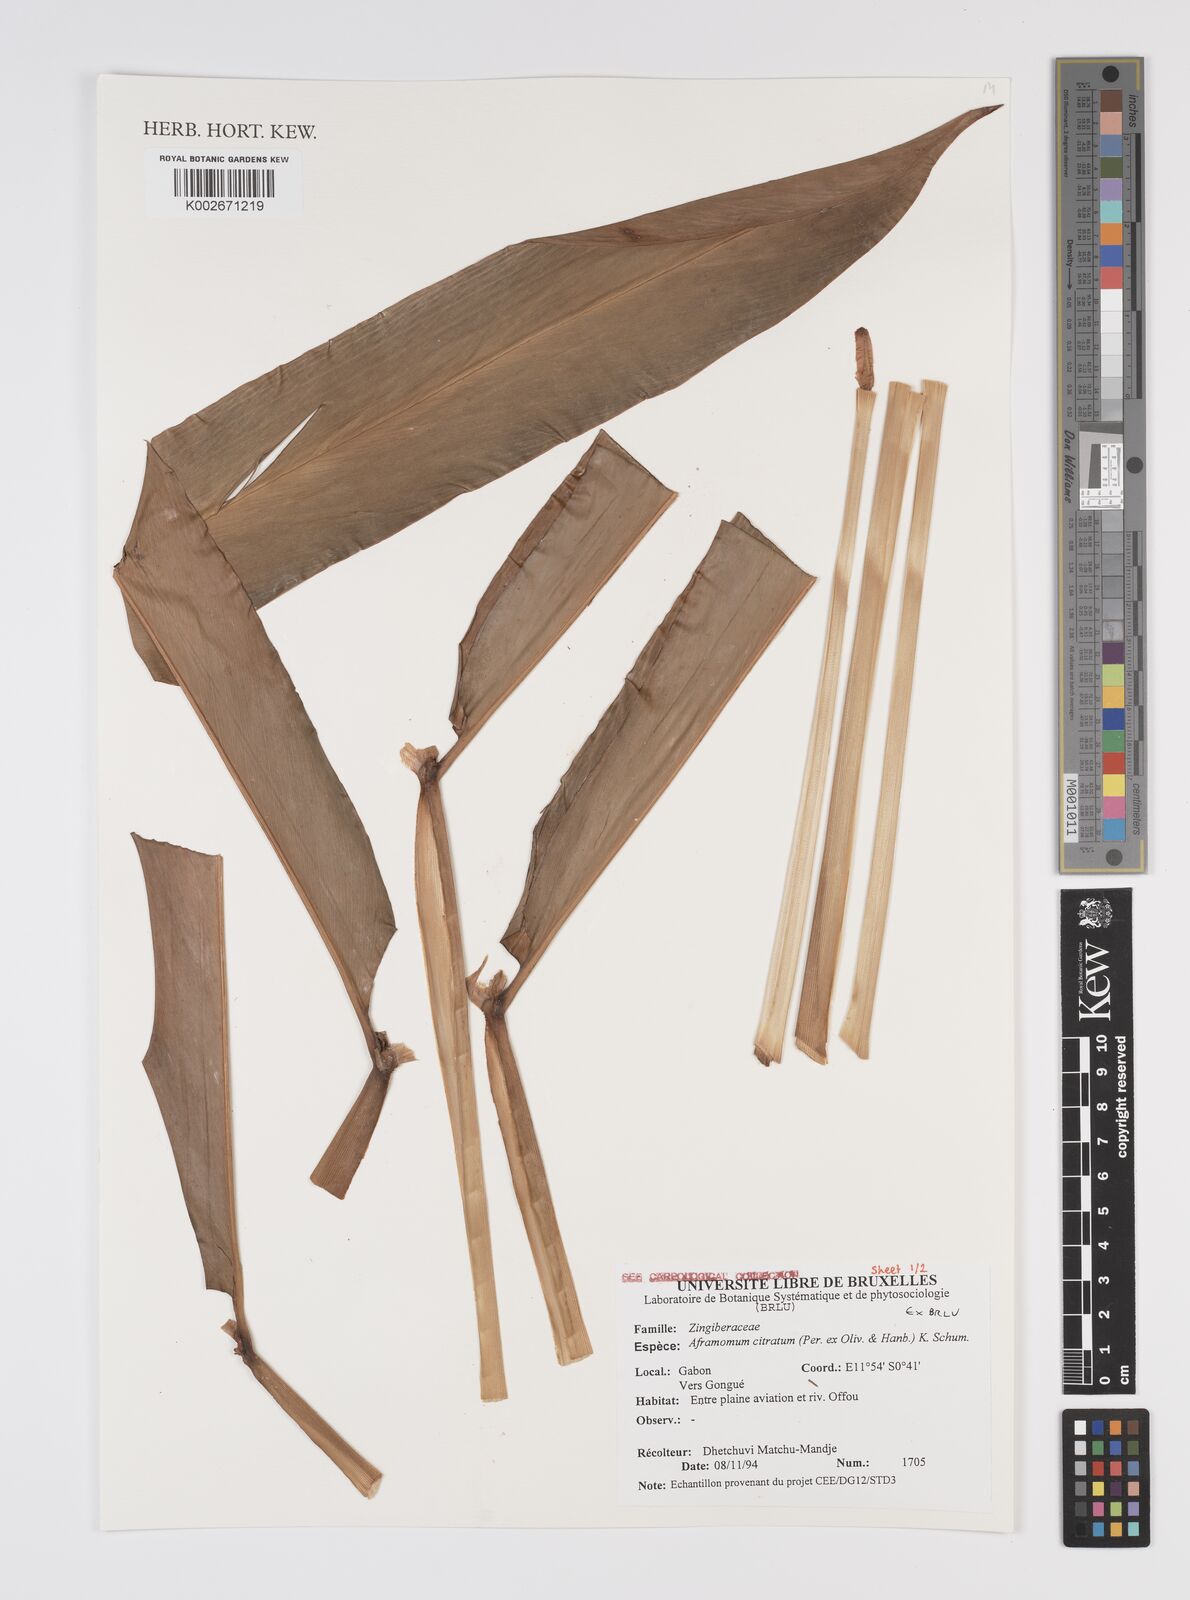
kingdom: Plantae
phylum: Tracheophyta
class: Liliopsida
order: Zingiberales
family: Zingiberaceae
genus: Aframomum
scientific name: Aframomum citratum
